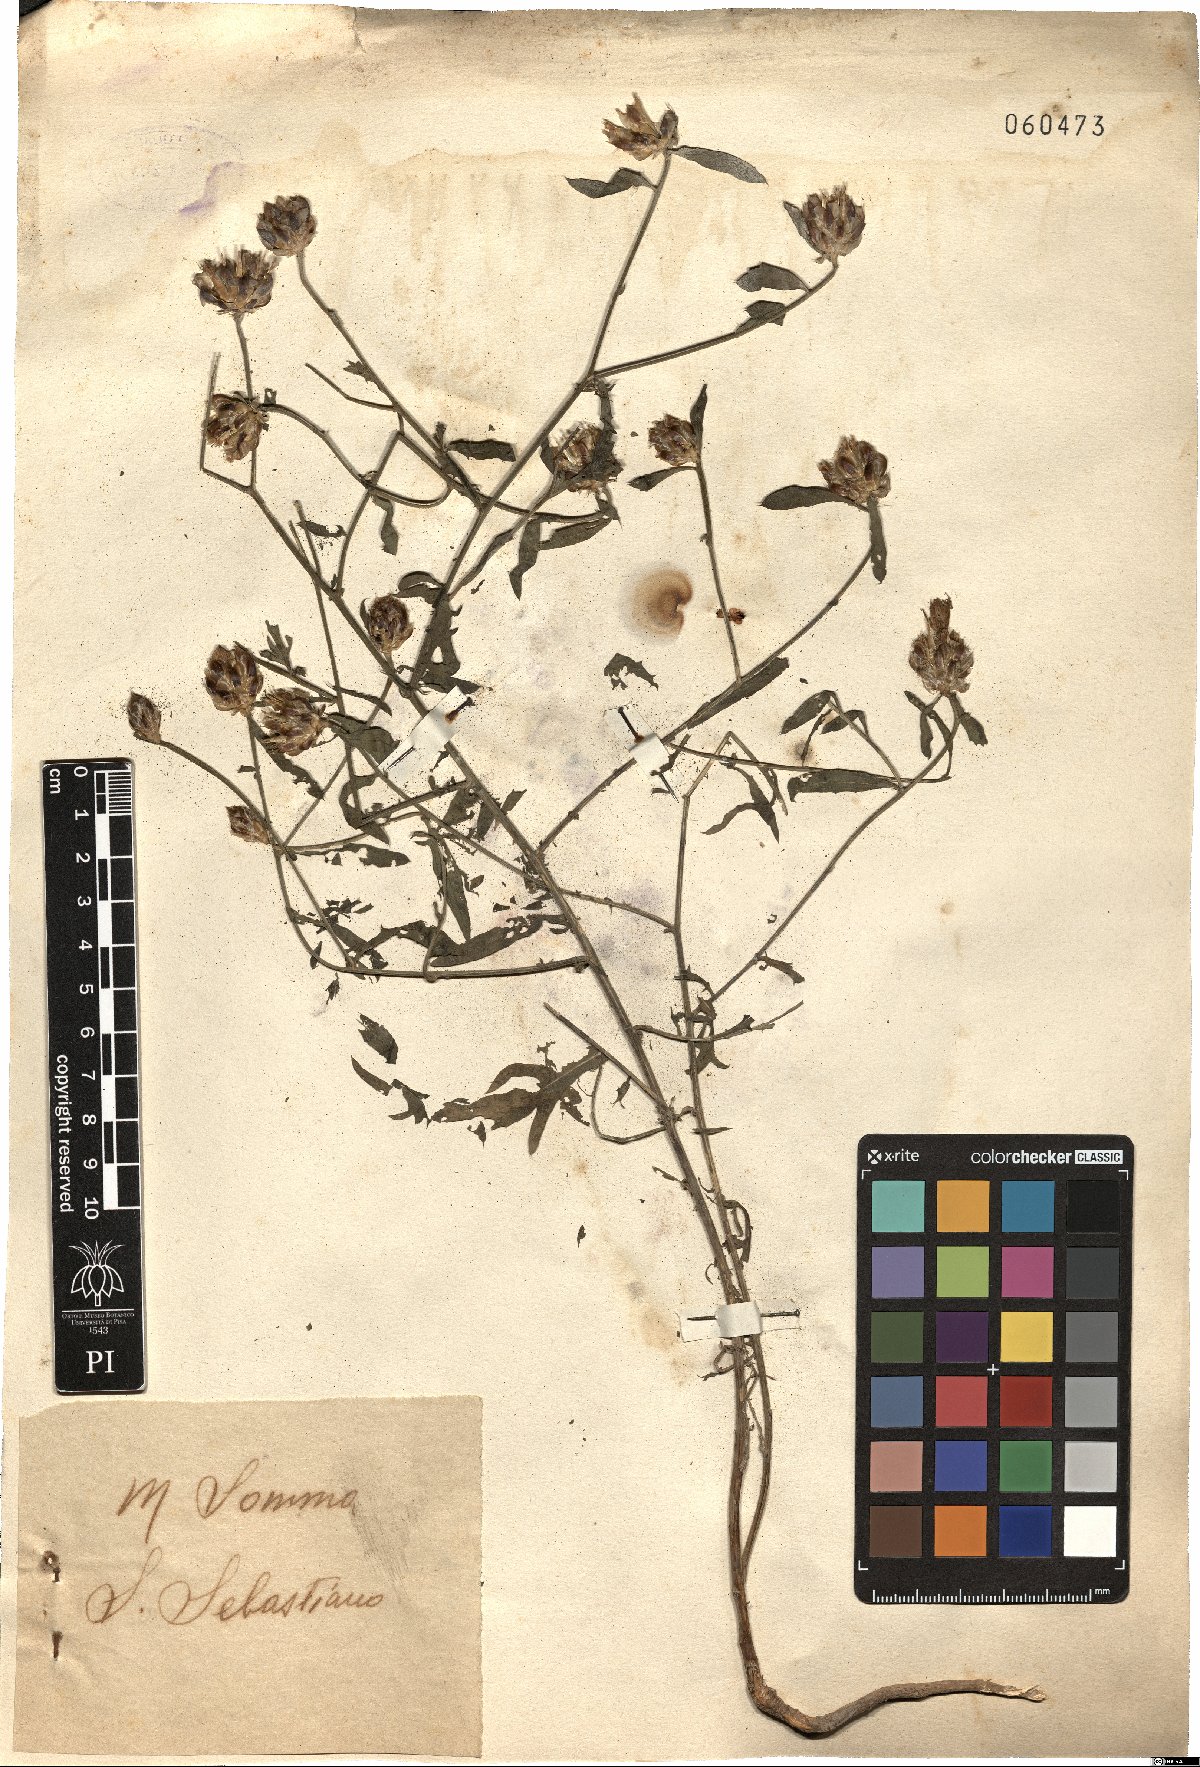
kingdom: Plantae
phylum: Tracheophyta
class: Magnoliopsida
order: Asterales
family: Asteraceae
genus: Centaurea
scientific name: Centaurea
